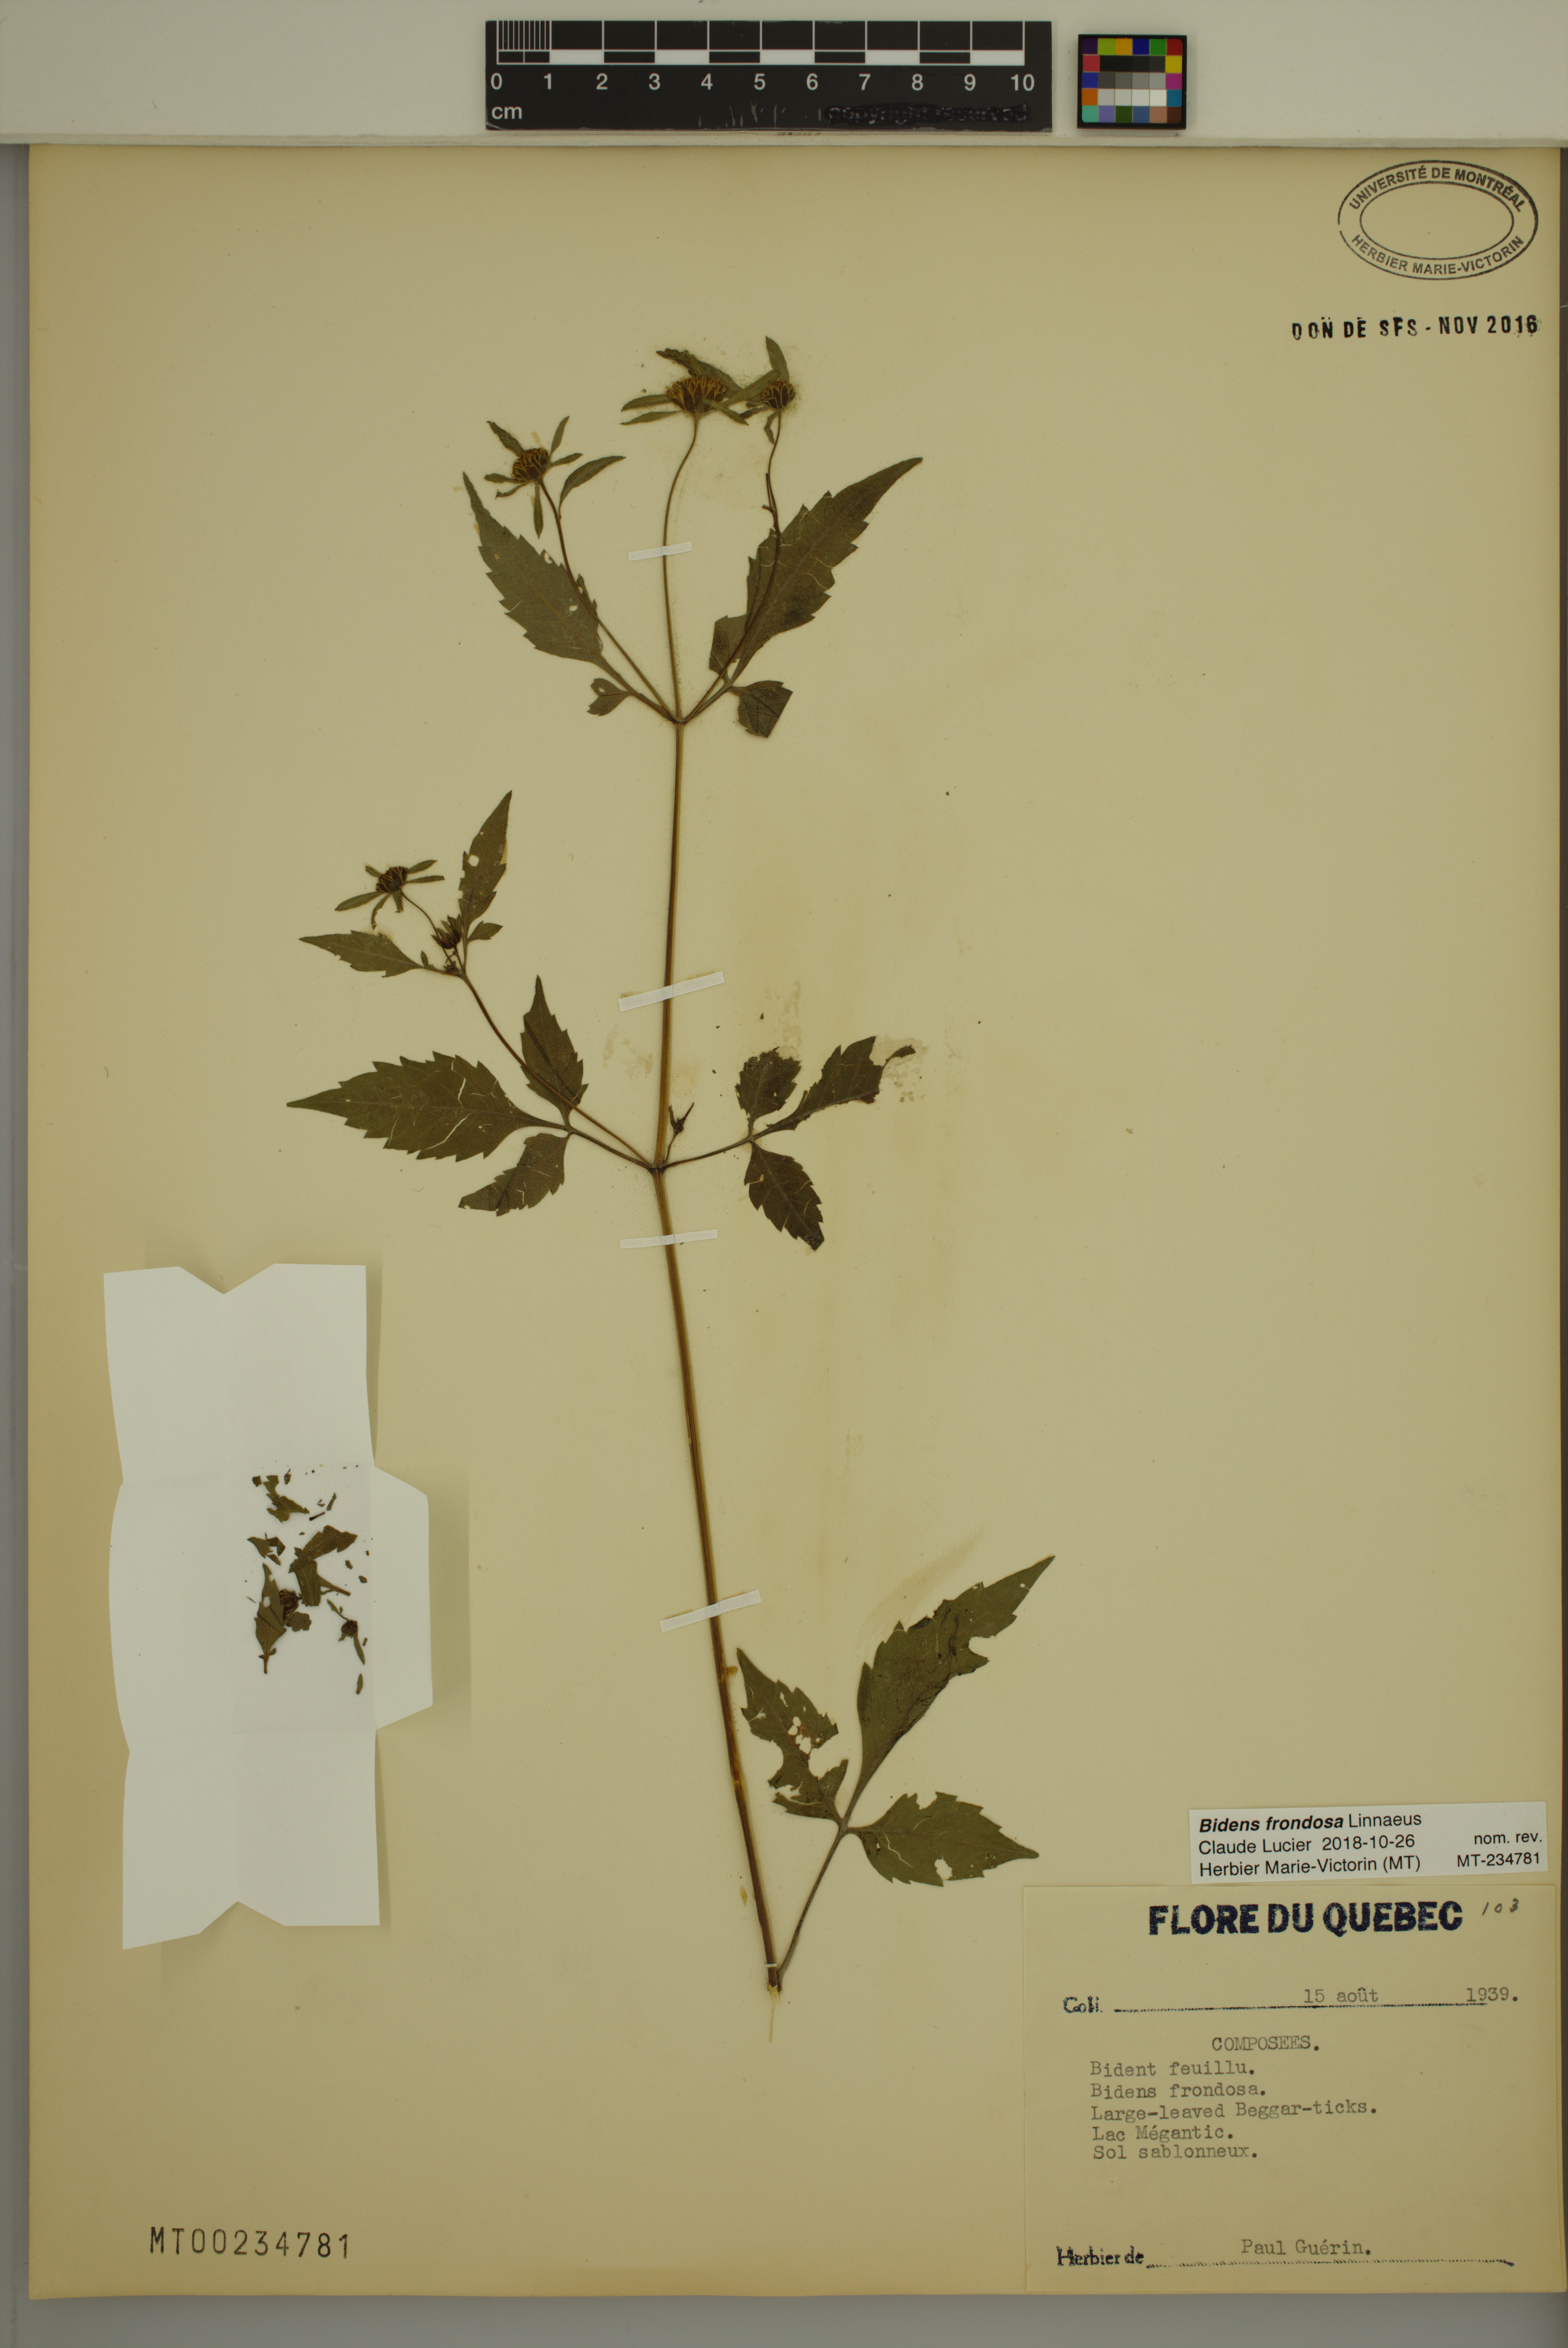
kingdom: Plantae
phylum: Tracheophyta
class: Magnoliopsida
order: Asterales
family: Asteraceae
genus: Bidens
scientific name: Bidens frondosa
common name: Beggarticks
